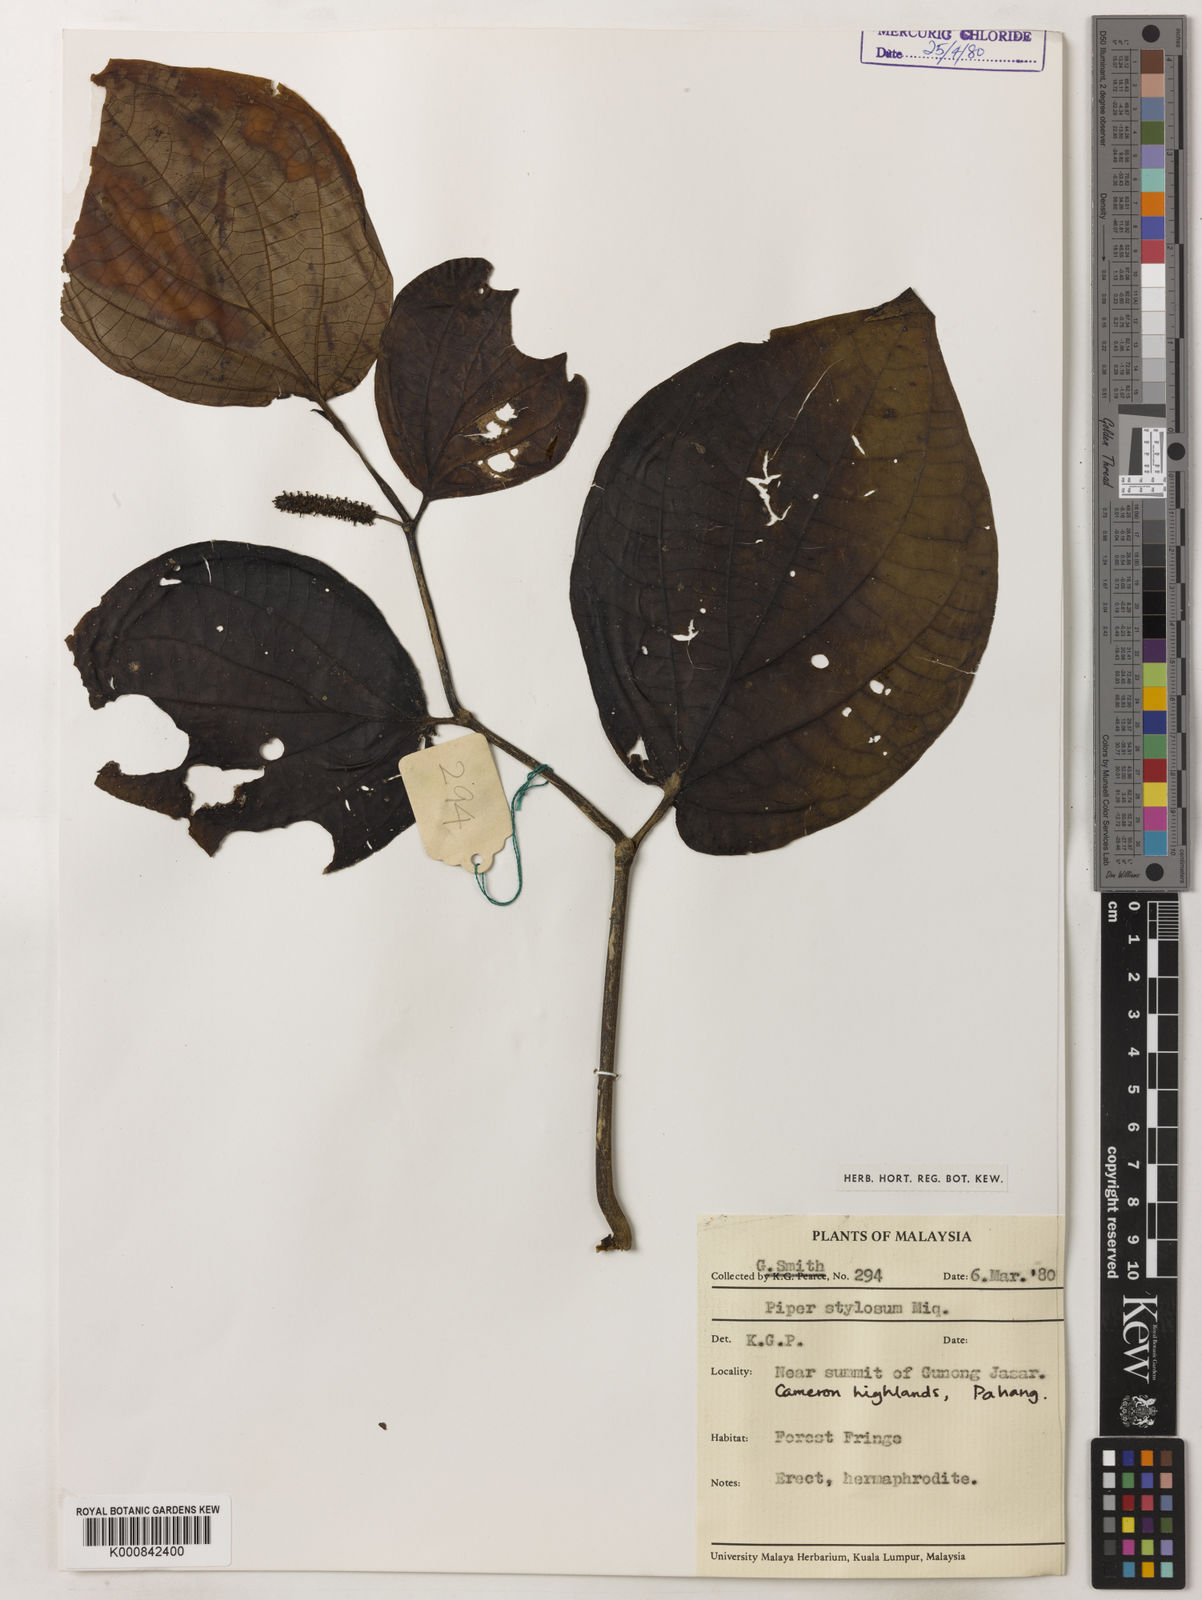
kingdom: Plantae
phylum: Tracheophyta
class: Magnoliopsida
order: Piperales
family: Piperaceae
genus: Piper
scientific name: Piper rostratum
